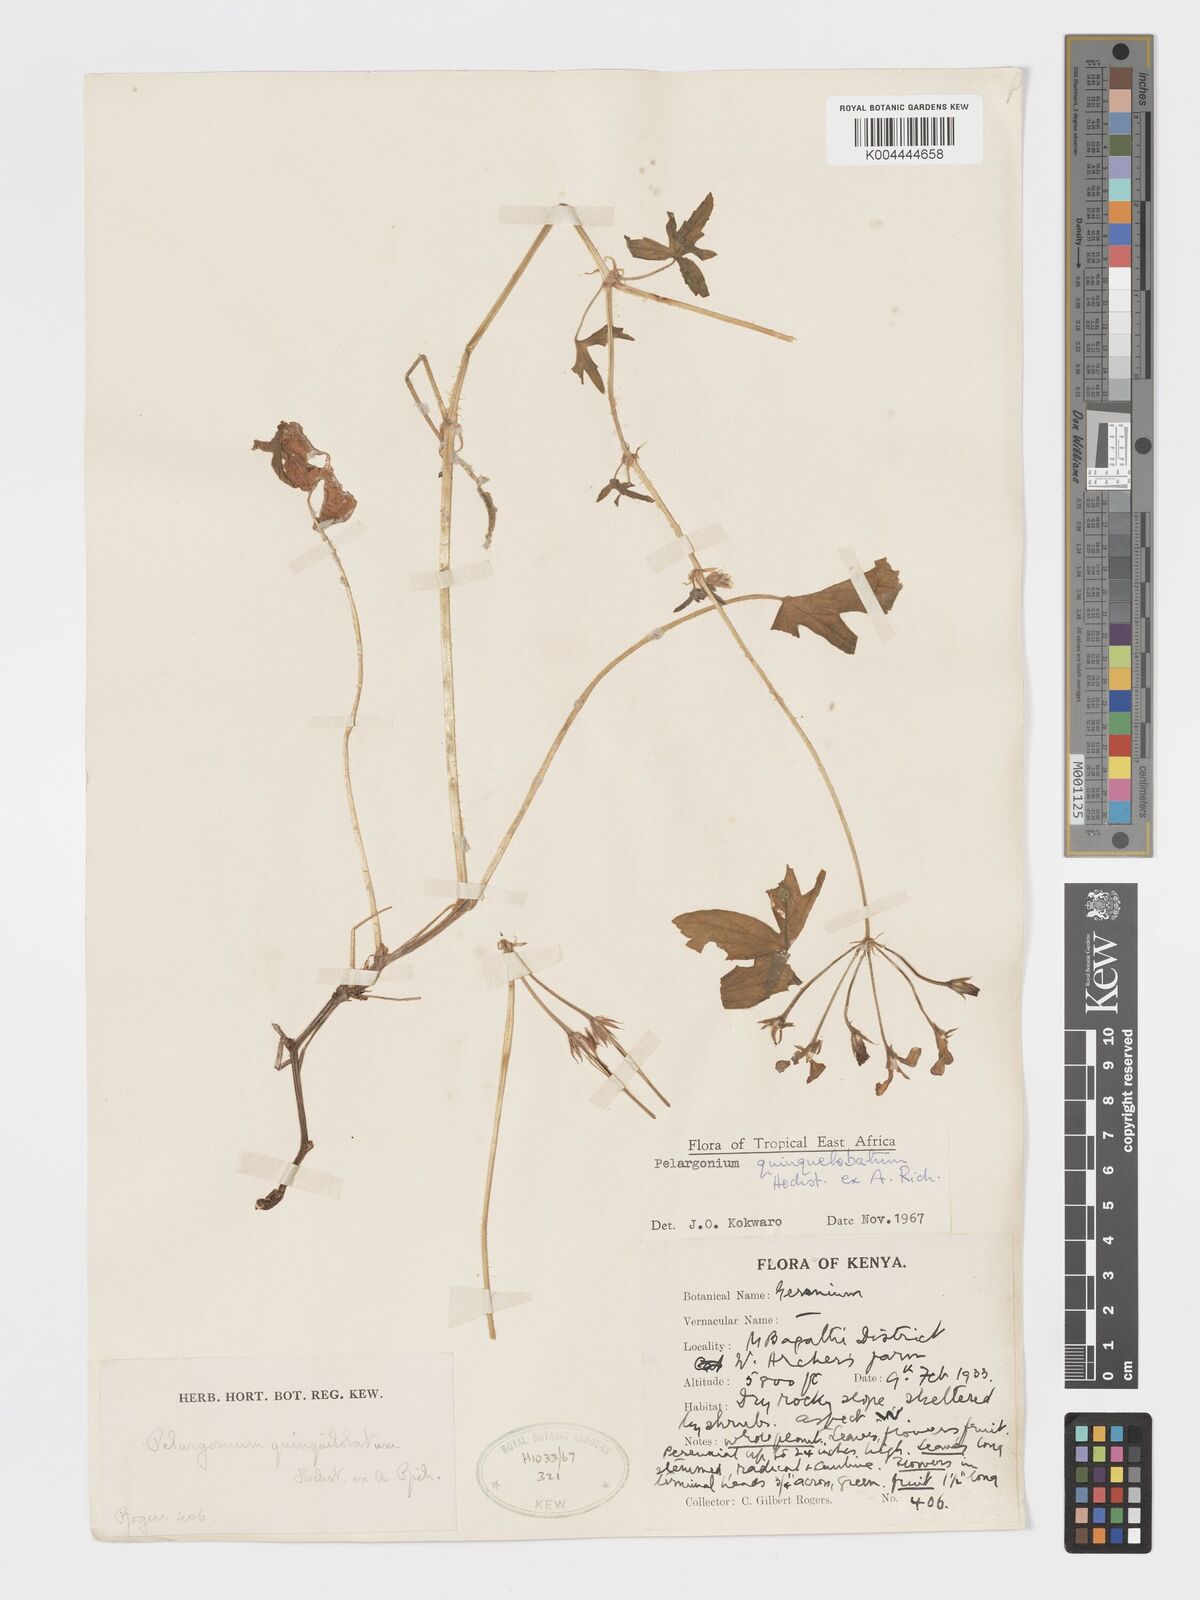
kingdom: Plantae
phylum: Tracheophyta
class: Magnoliopsida
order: Geraniales
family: Geraniaceae
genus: Pelargonium
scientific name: Pelargonium quinquelobatum
